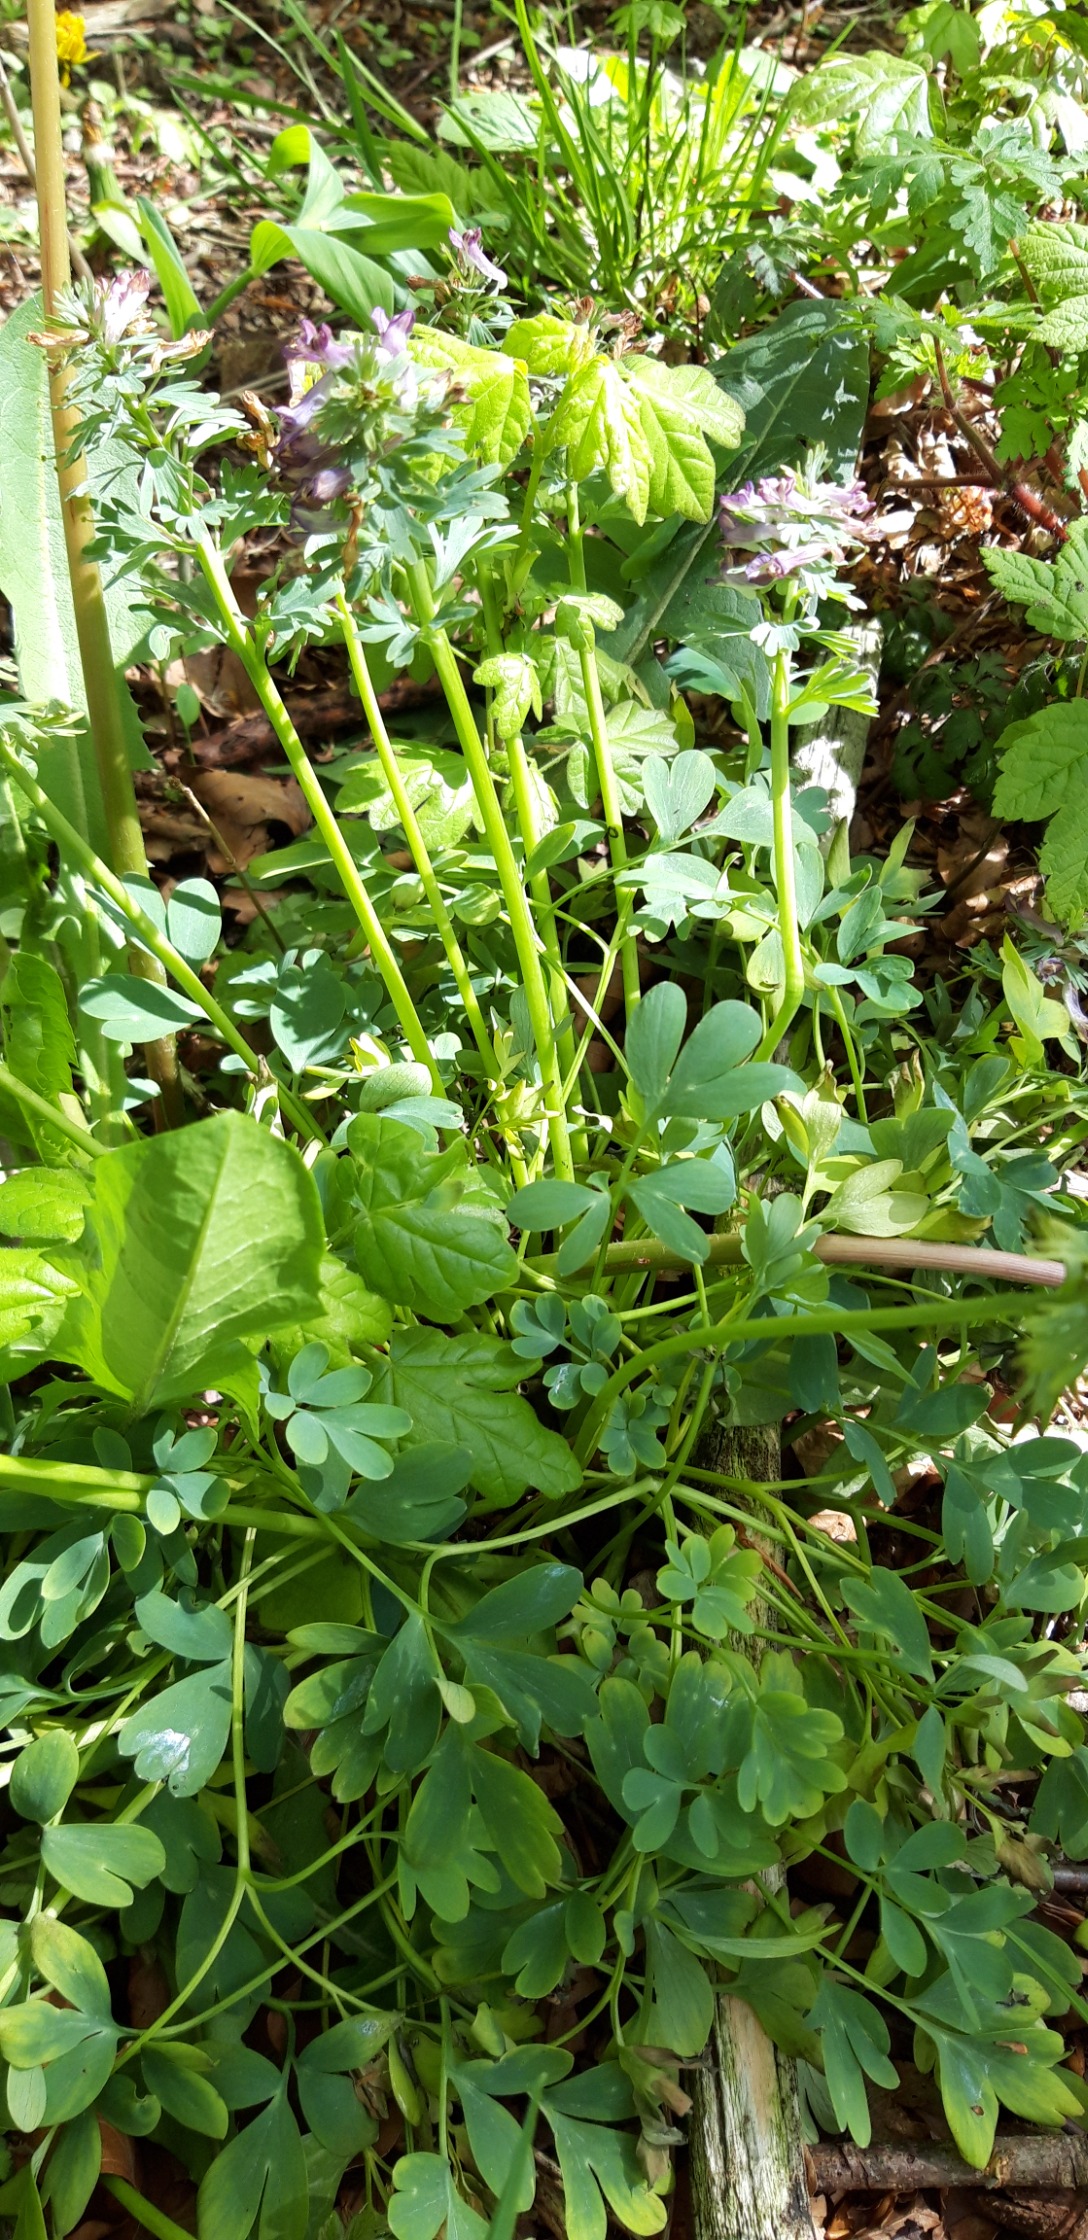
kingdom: Plantae
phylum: Tracheophyta
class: Magnoliopsida
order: Ranunculales
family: Papaveraceae
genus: Corydalis
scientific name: Corydalis solida
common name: Langstilket lærkespore
